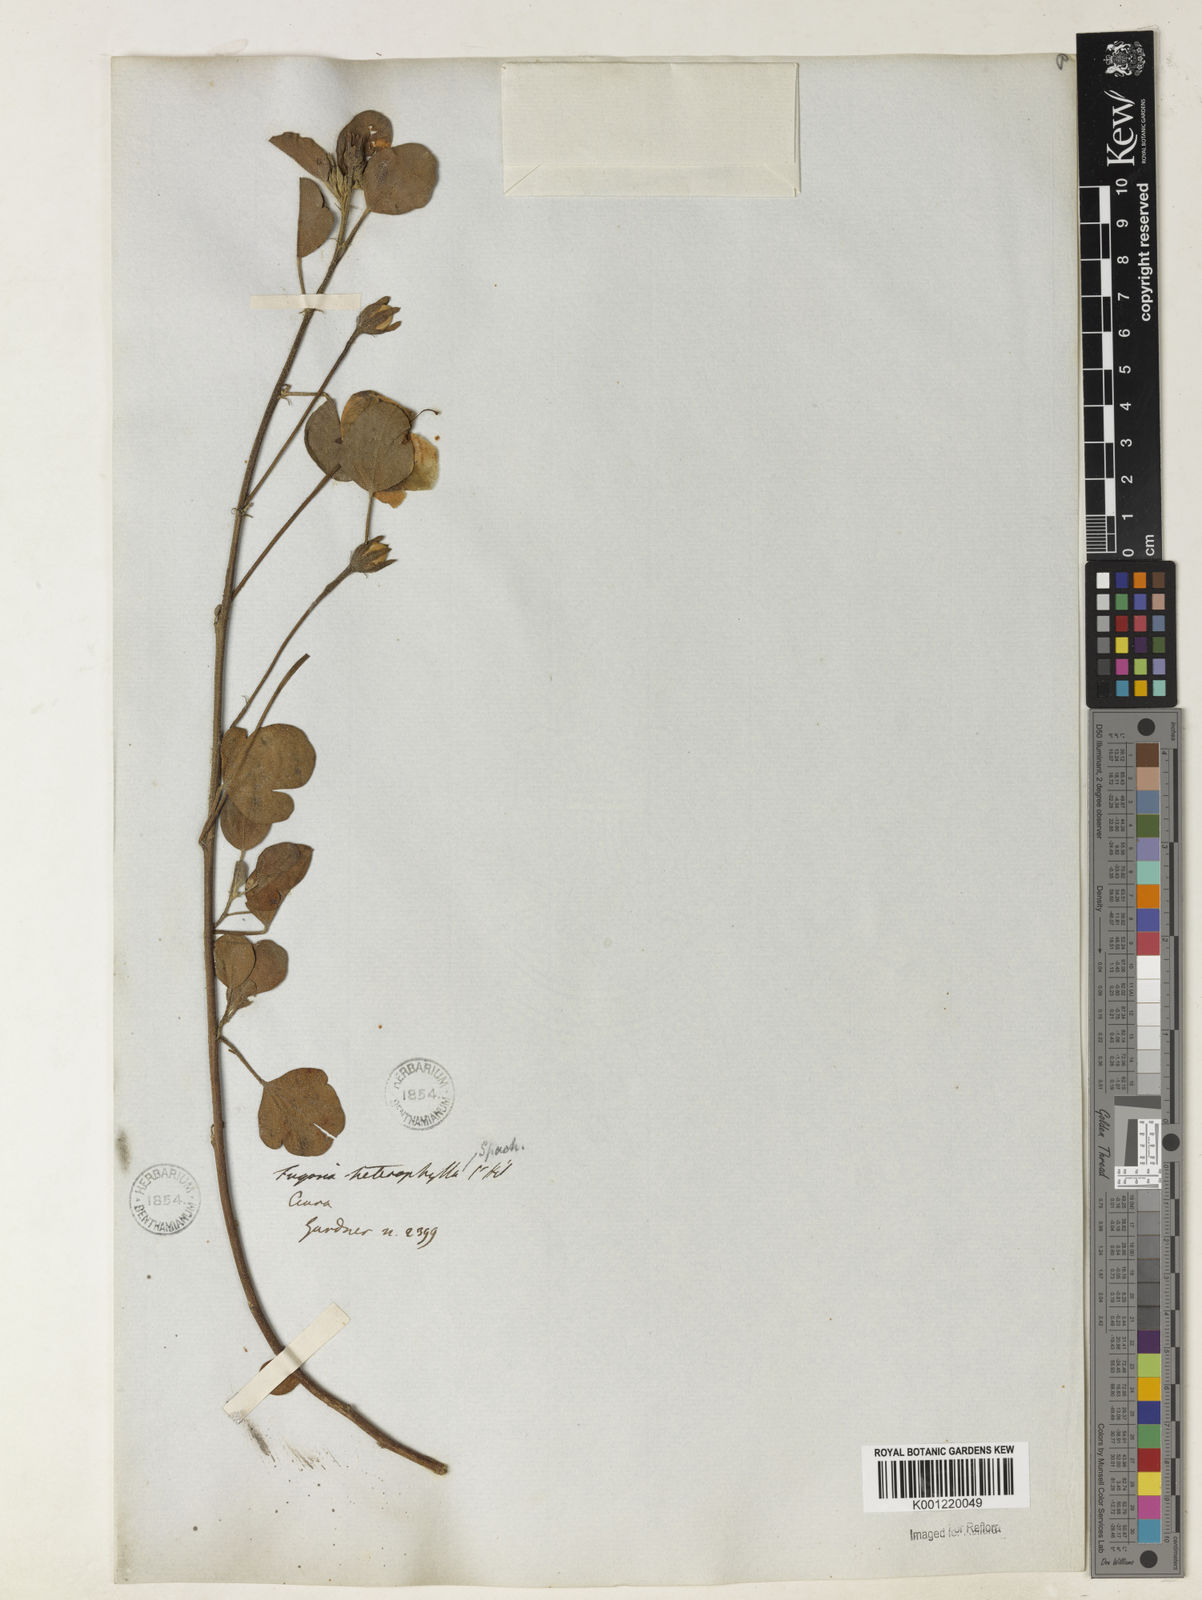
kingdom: Plantae
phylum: Tracheophyta
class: Magnoliopsida
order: Malvales
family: Malvaceae
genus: Cienfuegosia
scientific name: Cienfuegosia heterophylla
